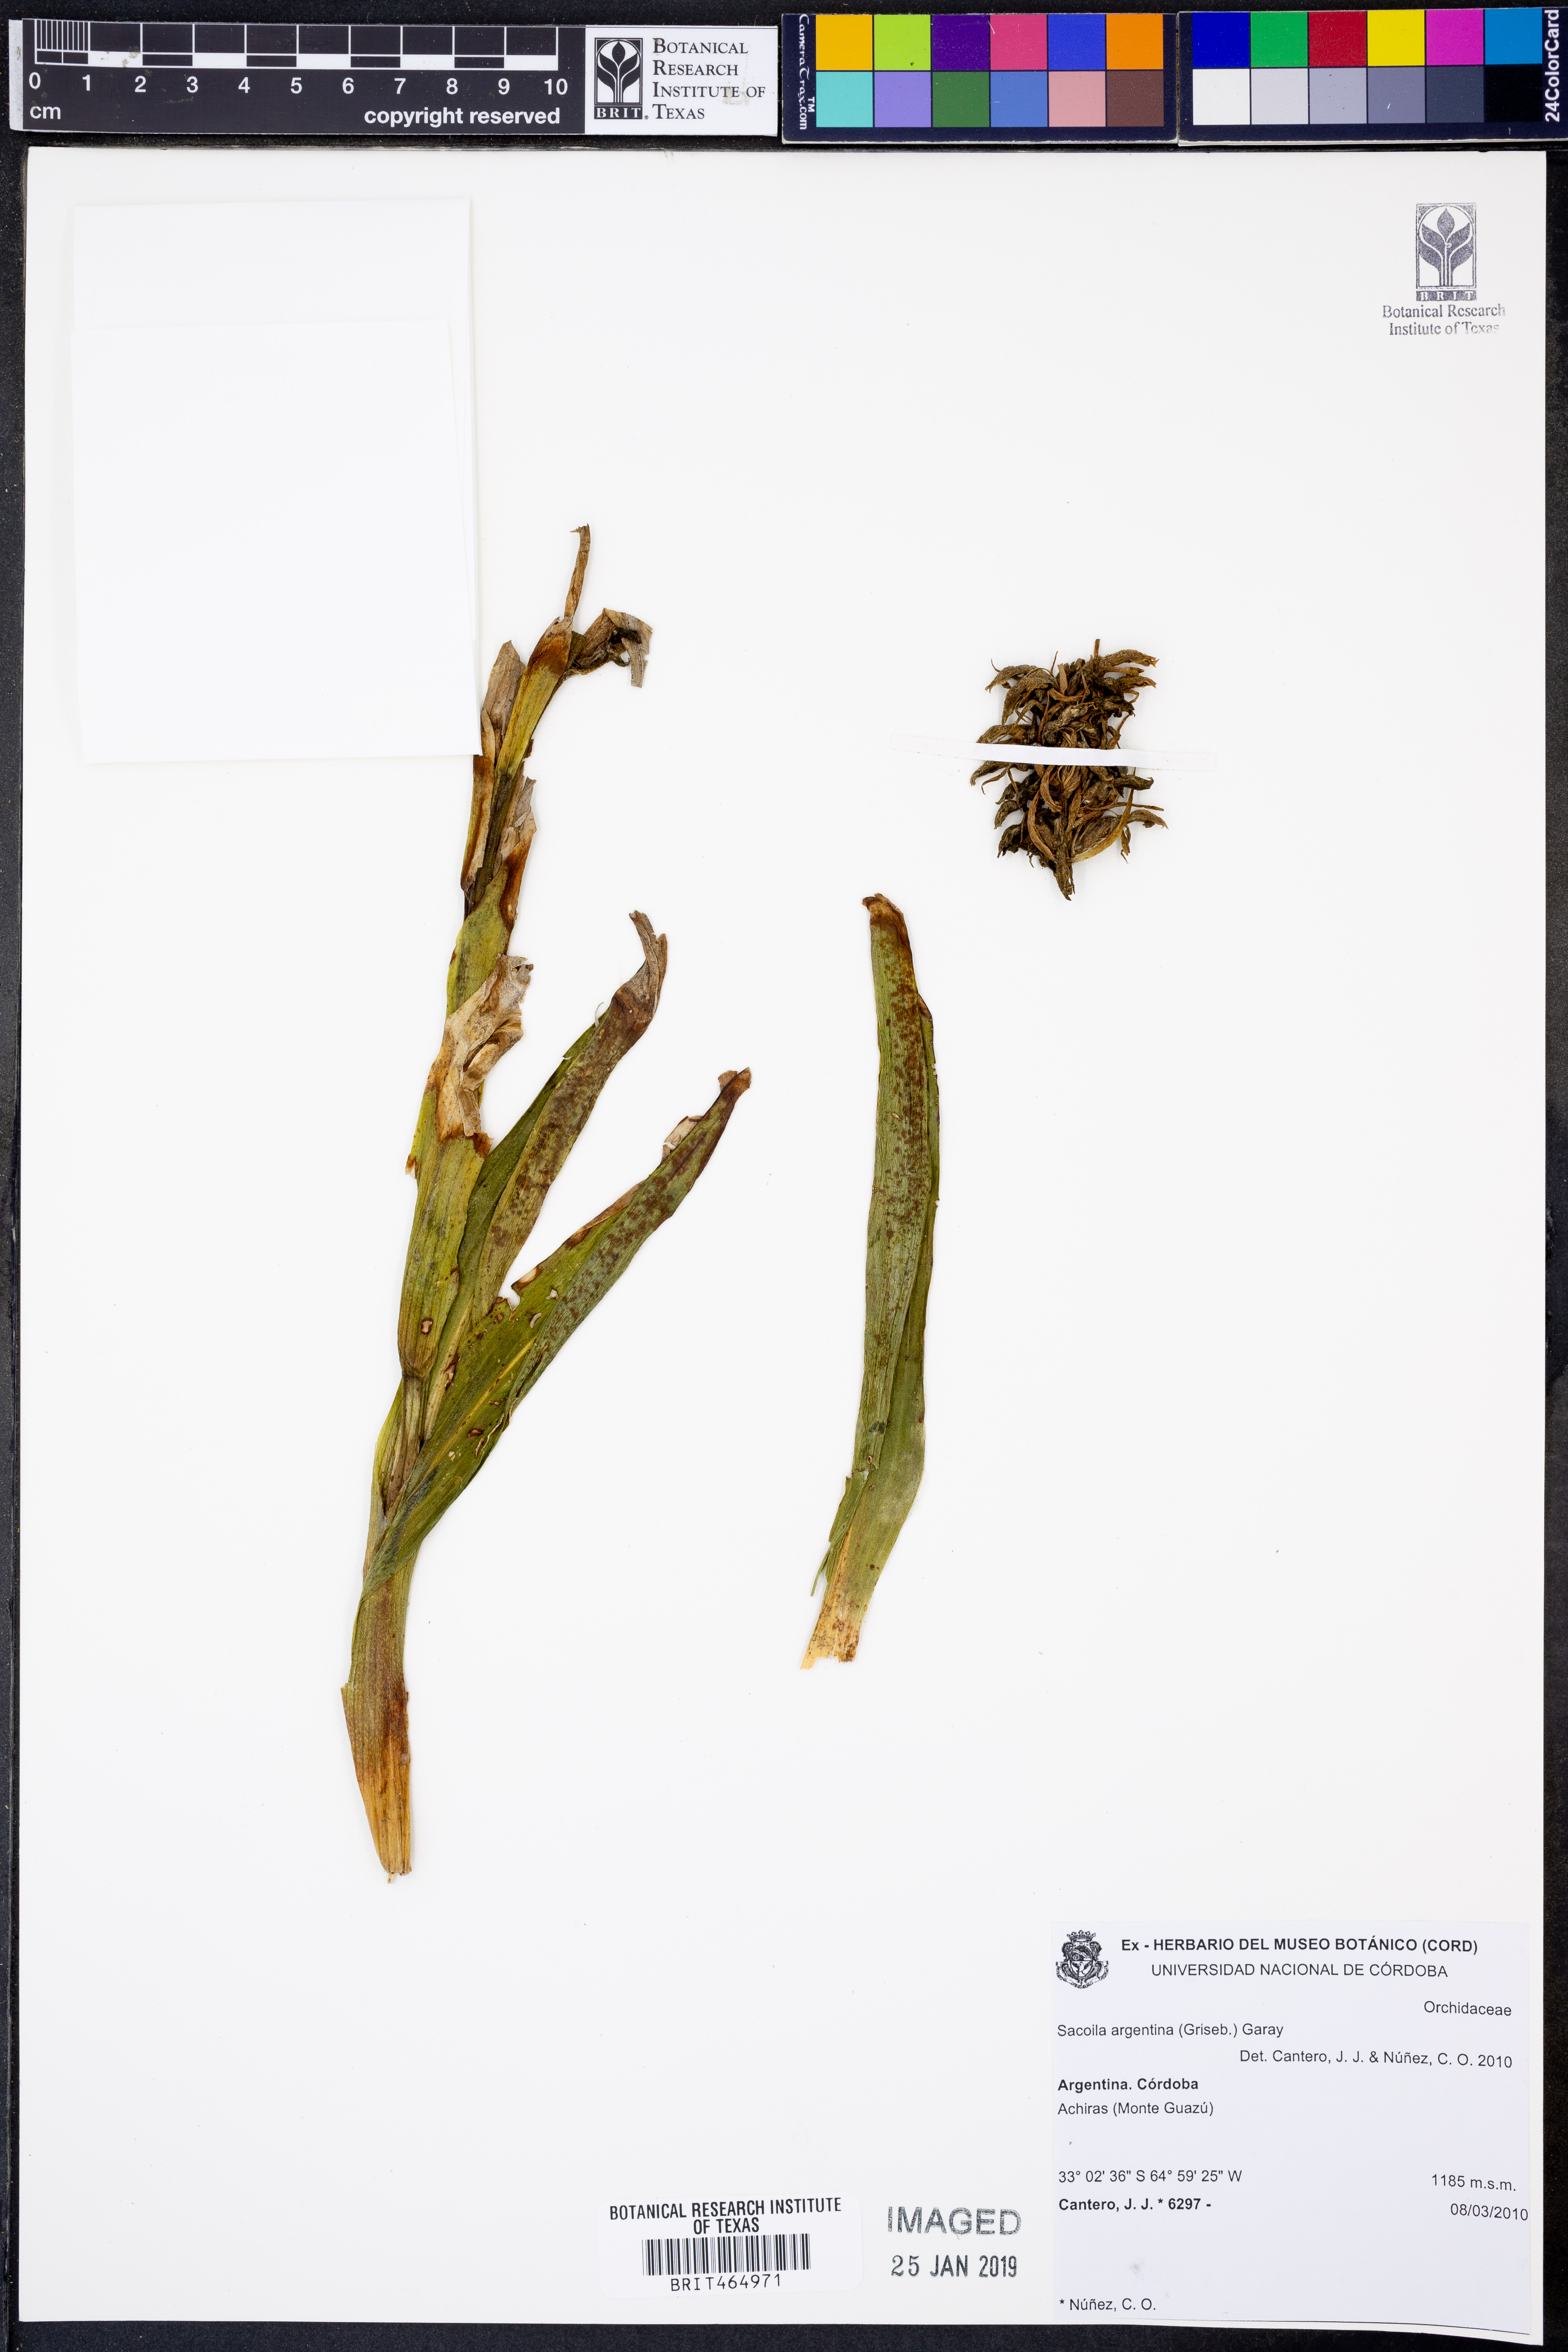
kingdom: Plantae
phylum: Tracheophyta
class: Liliopsida
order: Asparagales
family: Orchidaceae
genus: Sacoila
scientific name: Sacoila argentina
